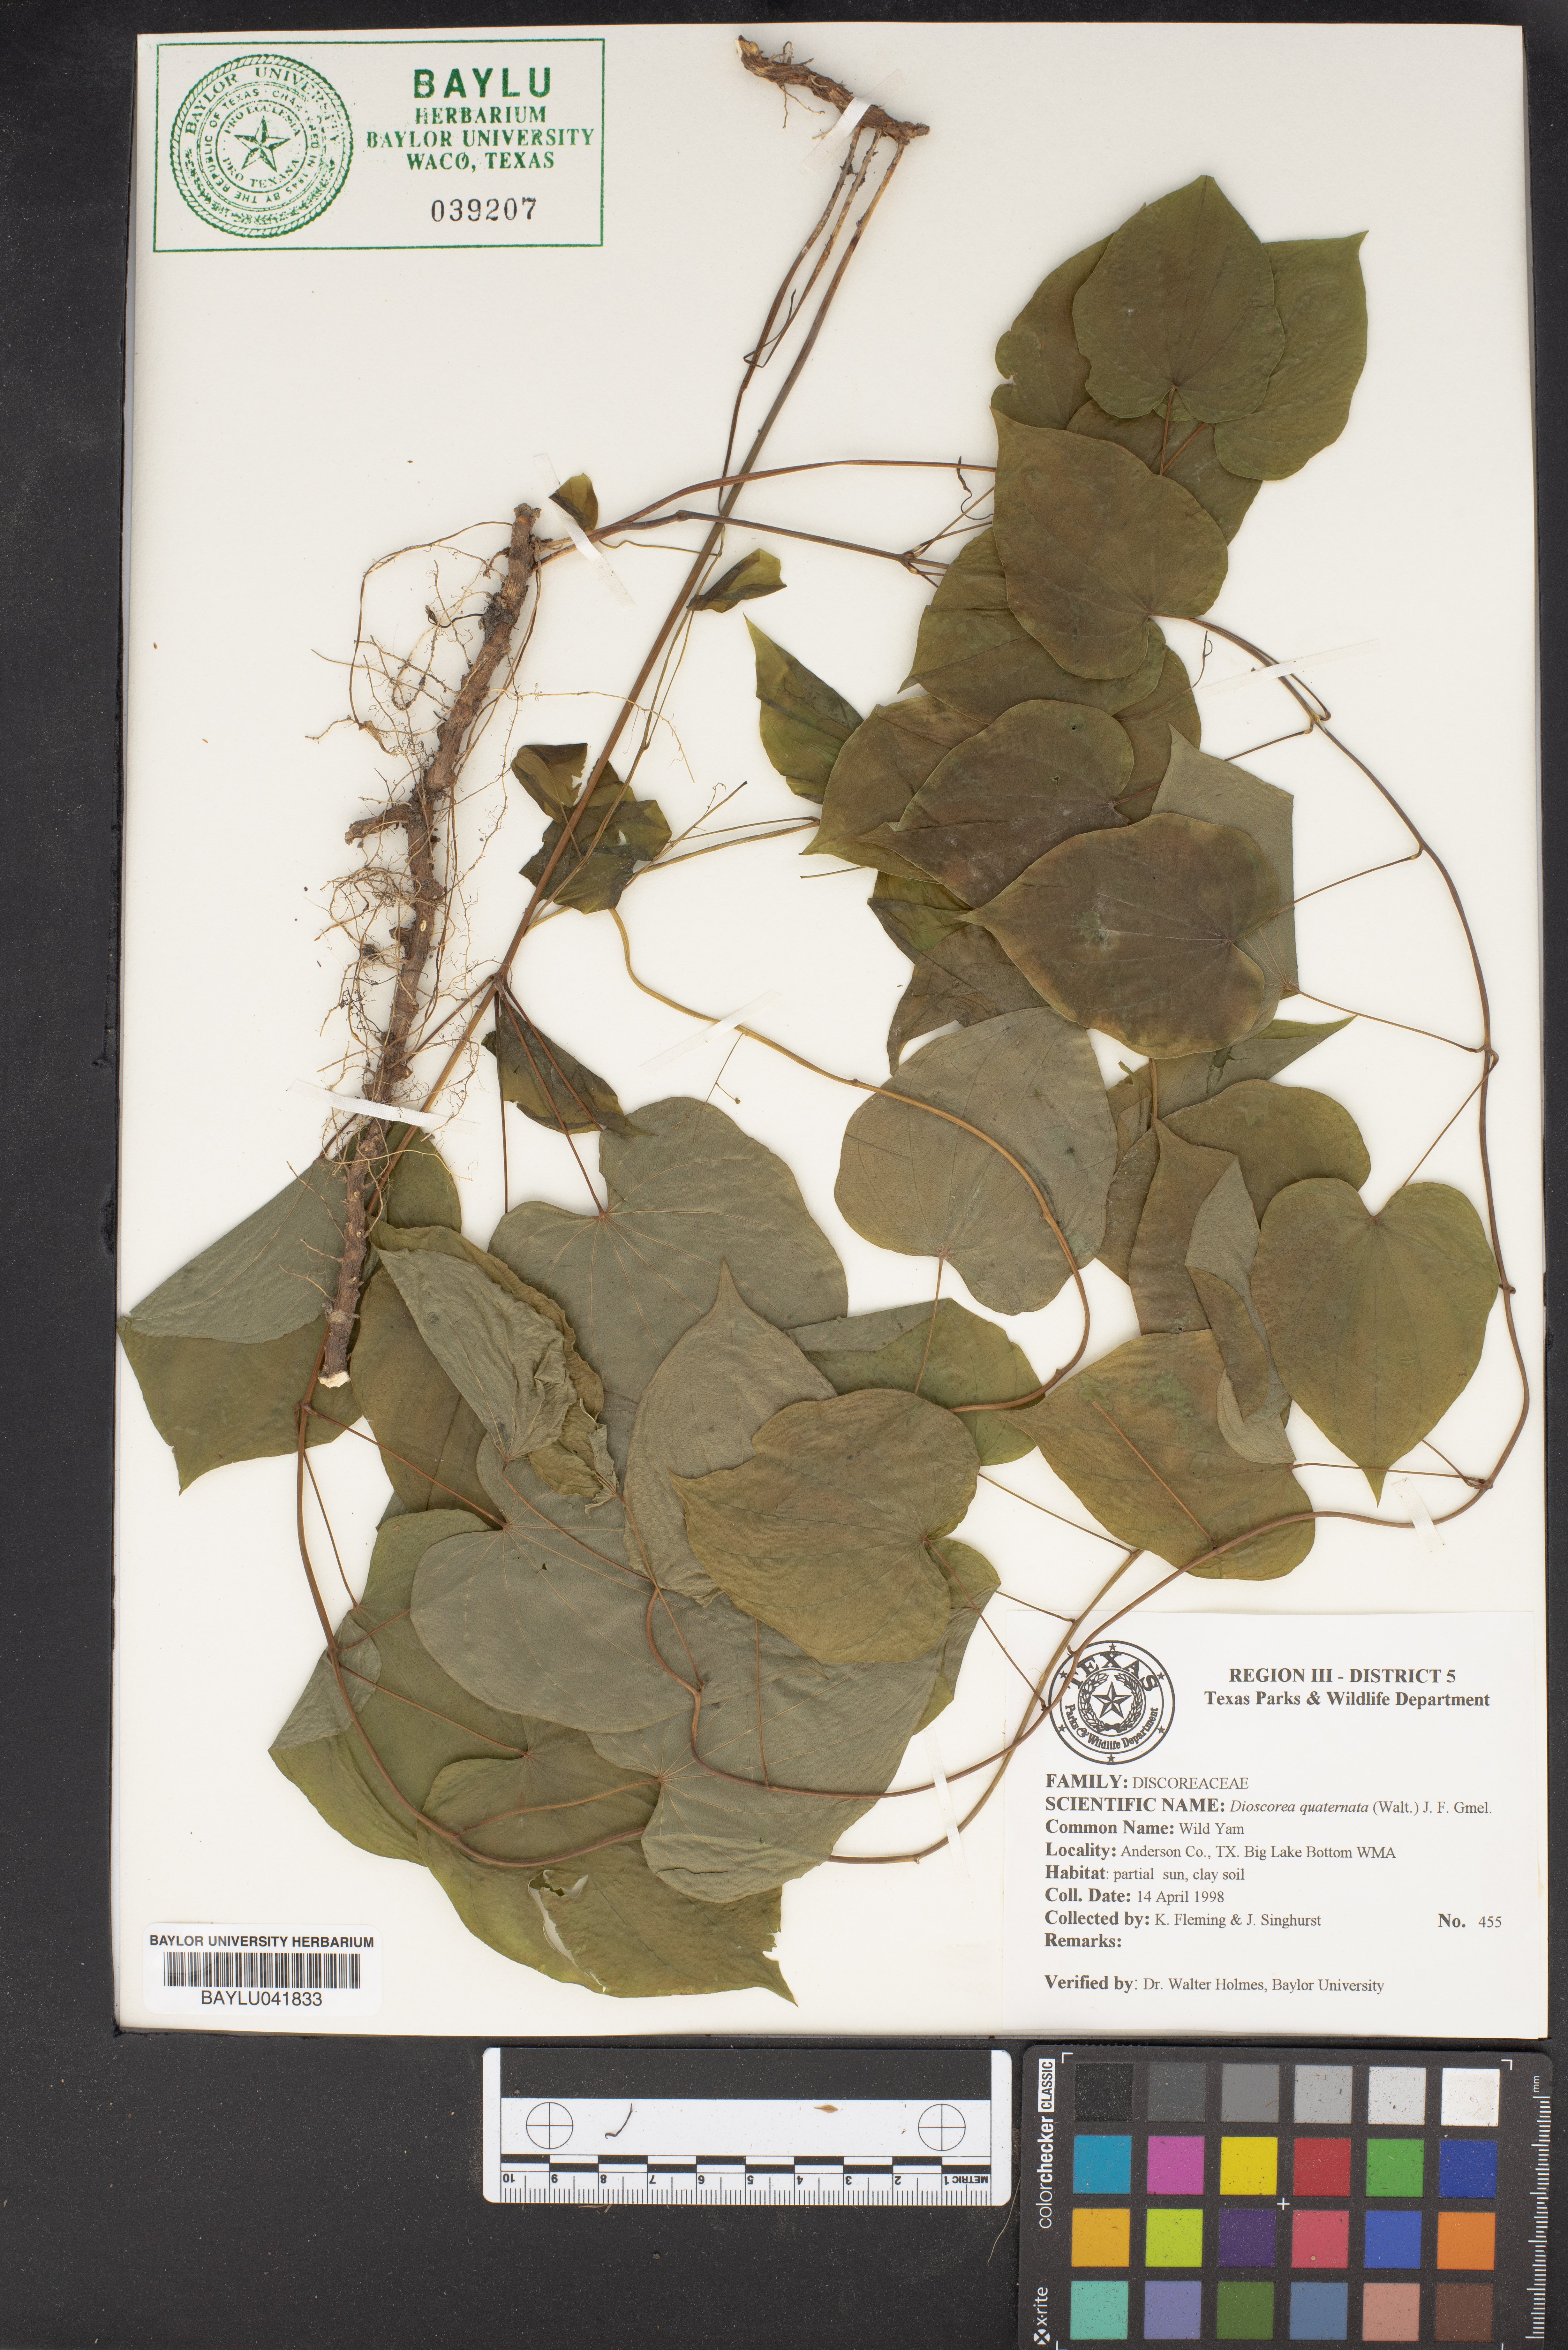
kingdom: Plantae
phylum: Tracheophyta
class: Liliopsida
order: Dioscoreales
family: Dioscoreaceae
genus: Dioscorea
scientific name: Dioscorea quaternata
